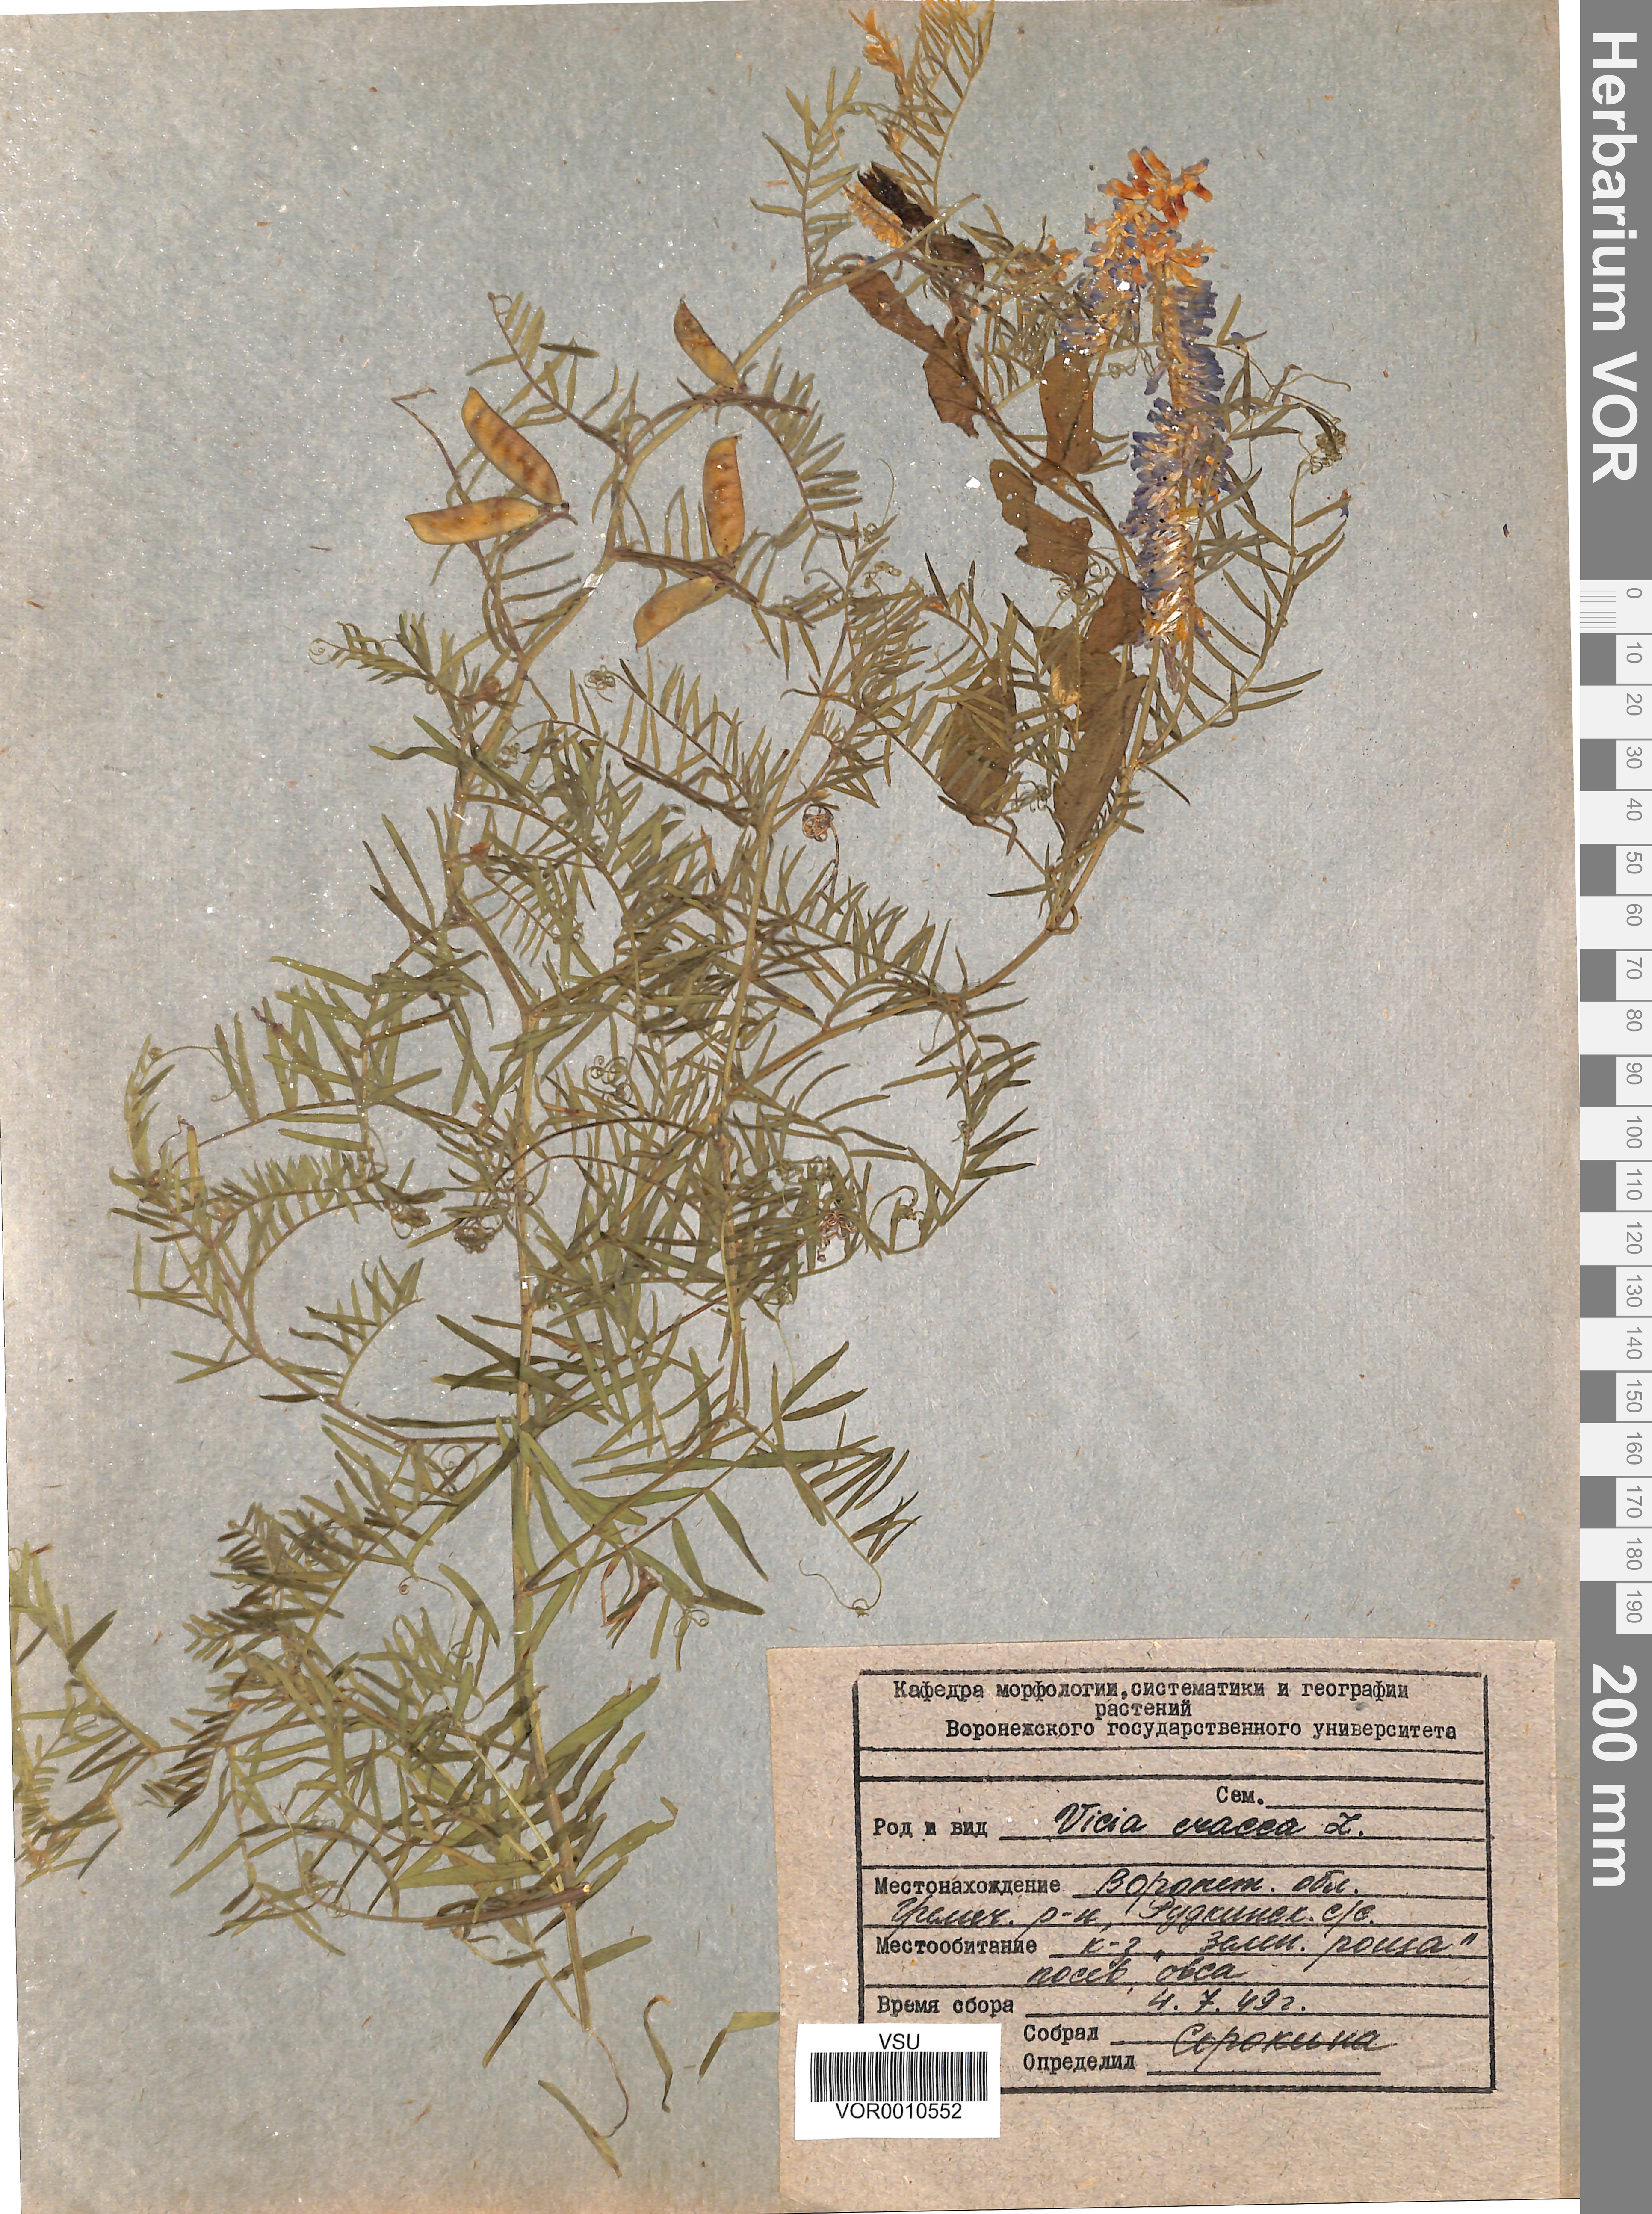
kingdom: Plantae
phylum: Tracheophyta
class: Magnoliopsida
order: Fabales
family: Fabaceae
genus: Vicia
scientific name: Vicia cracca
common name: Bird vetch
